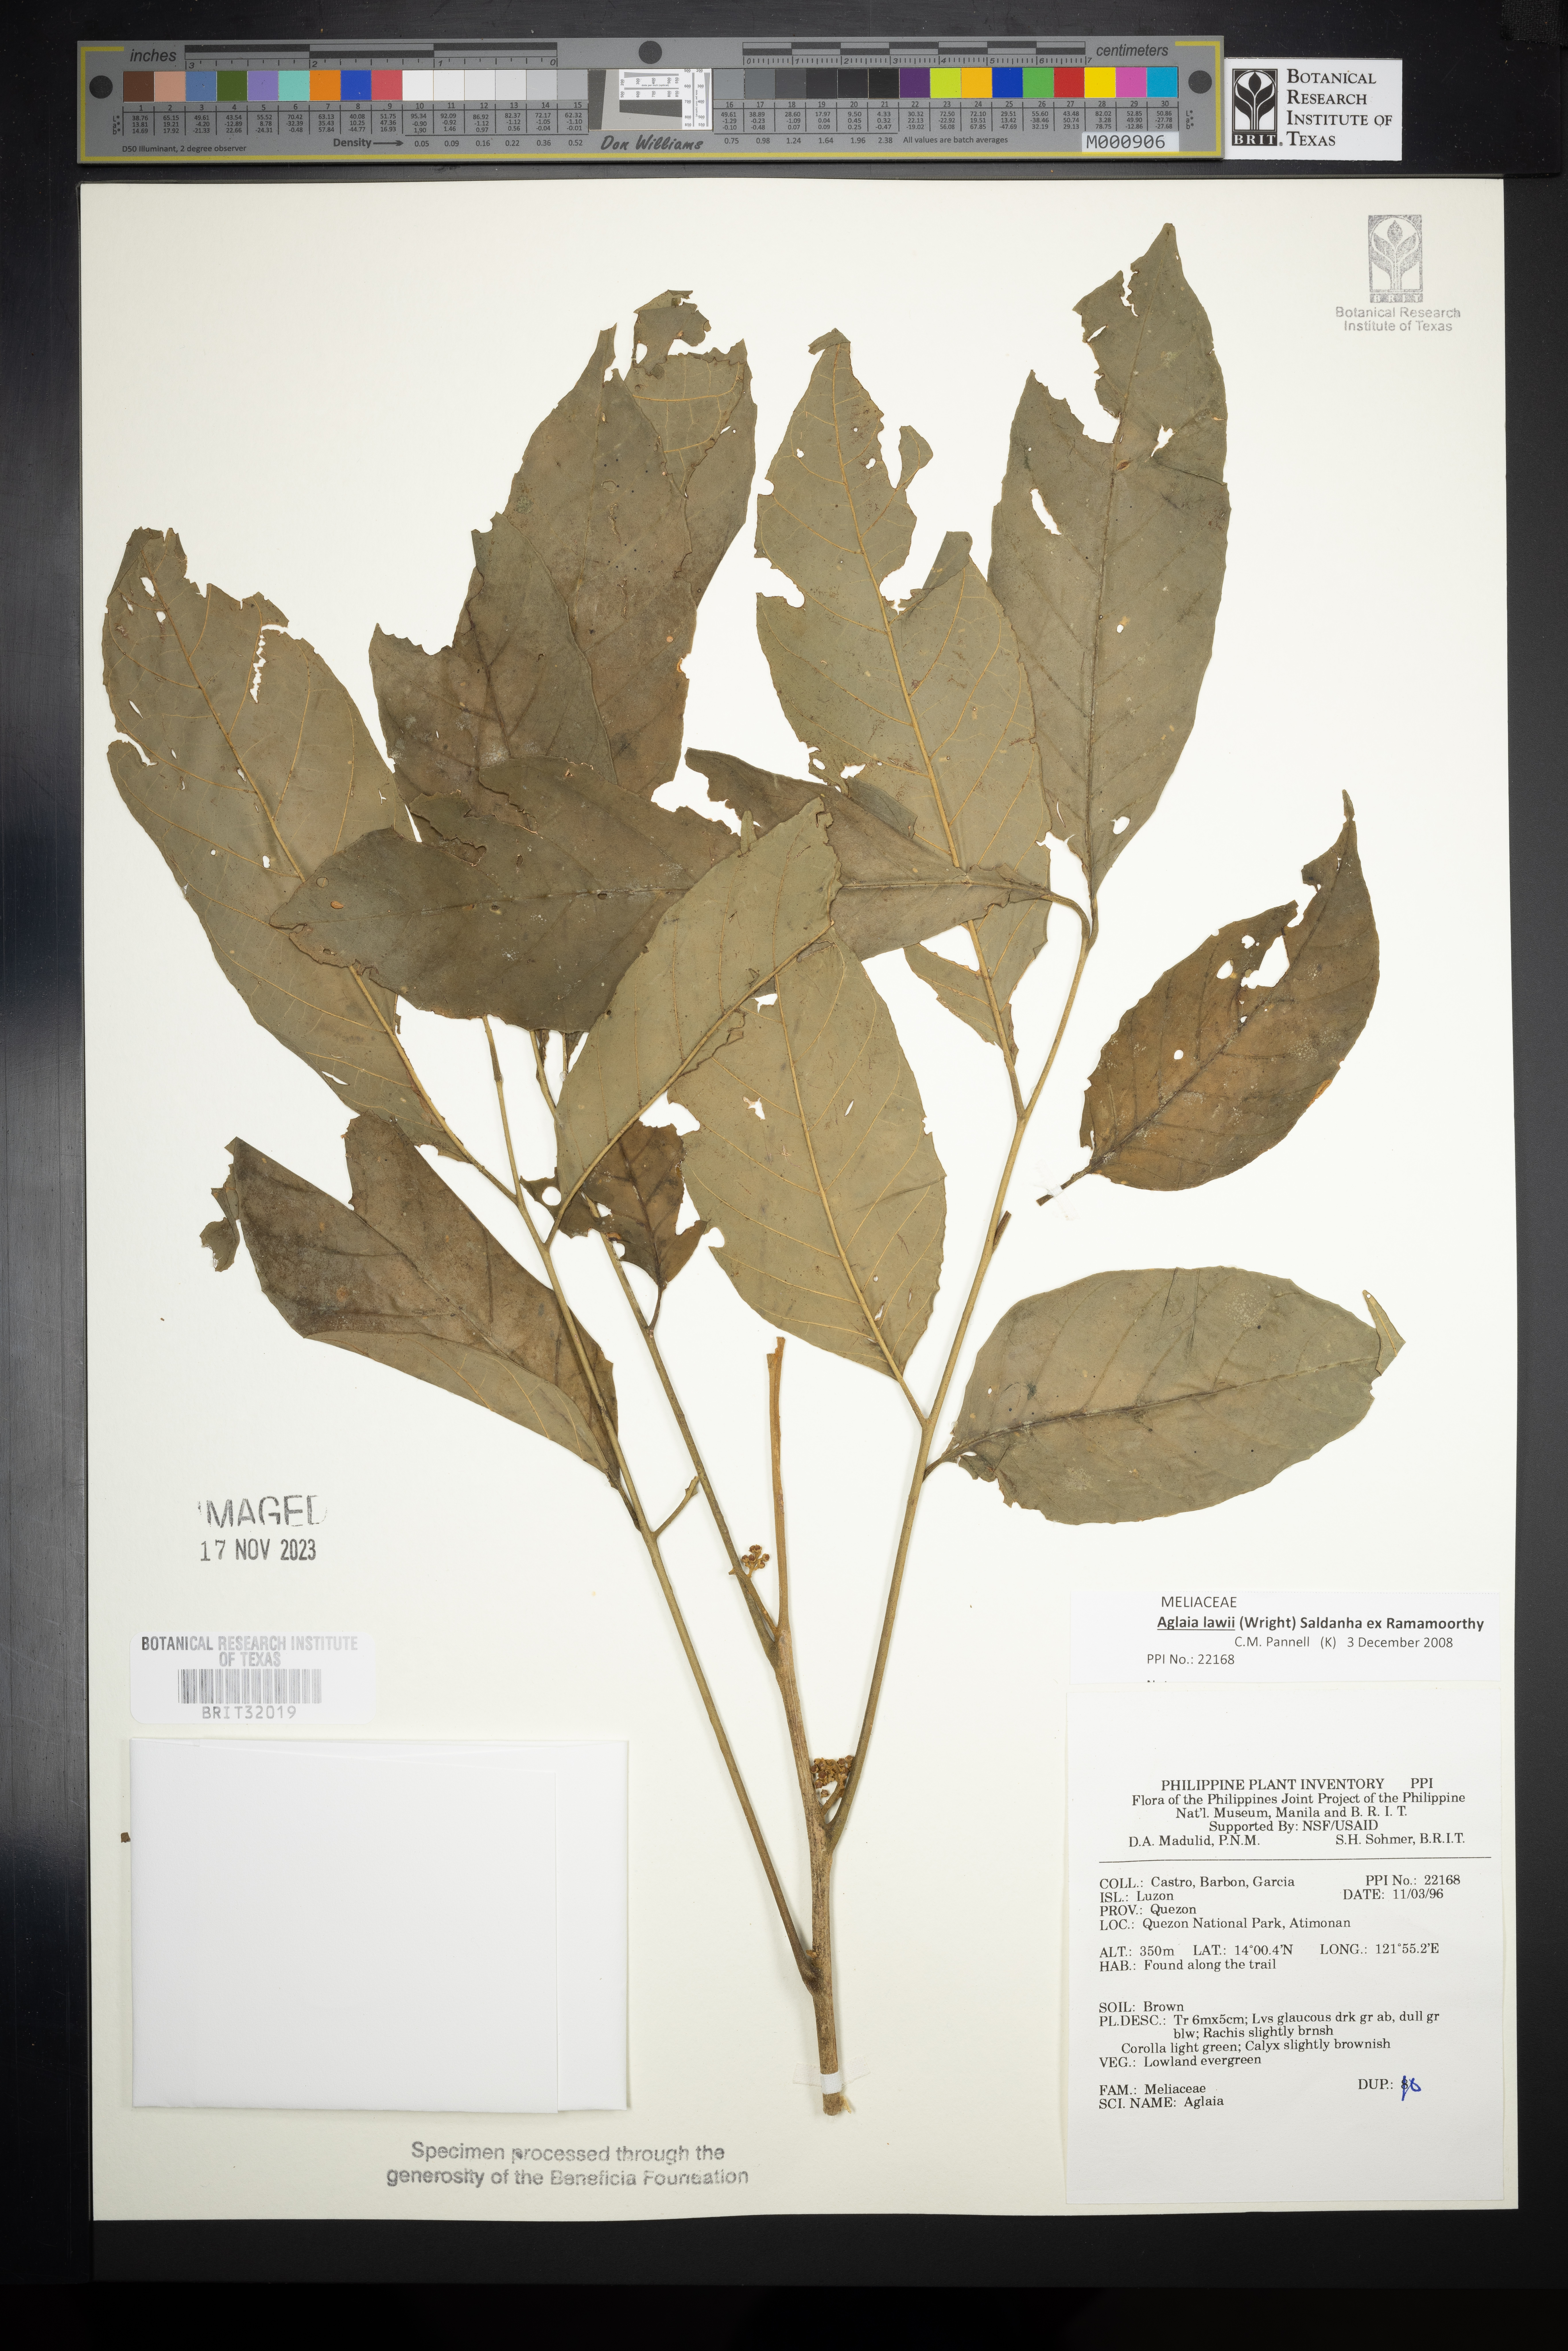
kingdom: Plantae
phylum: Tracheophyta
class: Magnoliopsida
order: Sapindales
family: Meliaceae
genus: Aglaia
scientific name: Aglaia
